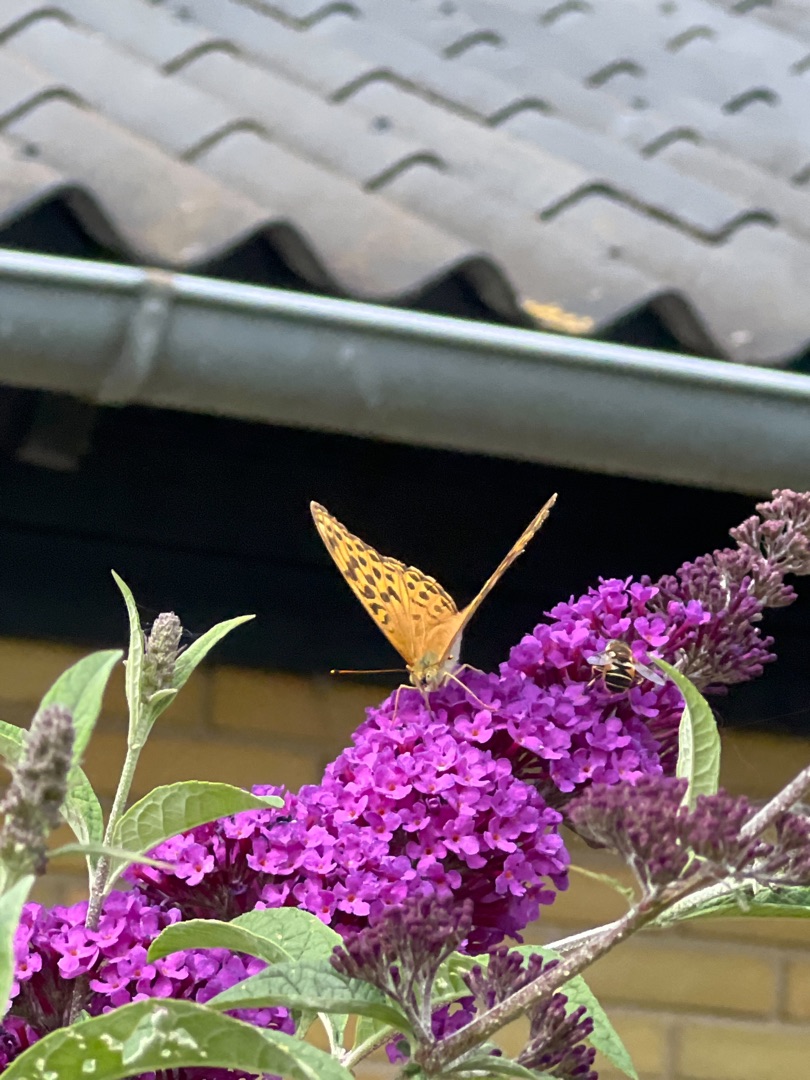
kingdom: Animalia
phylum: Arthropoda
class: Insecta
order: Lepidoptera
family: Nymphalidae
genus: Argynnis
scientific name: Argynnis paphia
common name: Kejserkåbe
